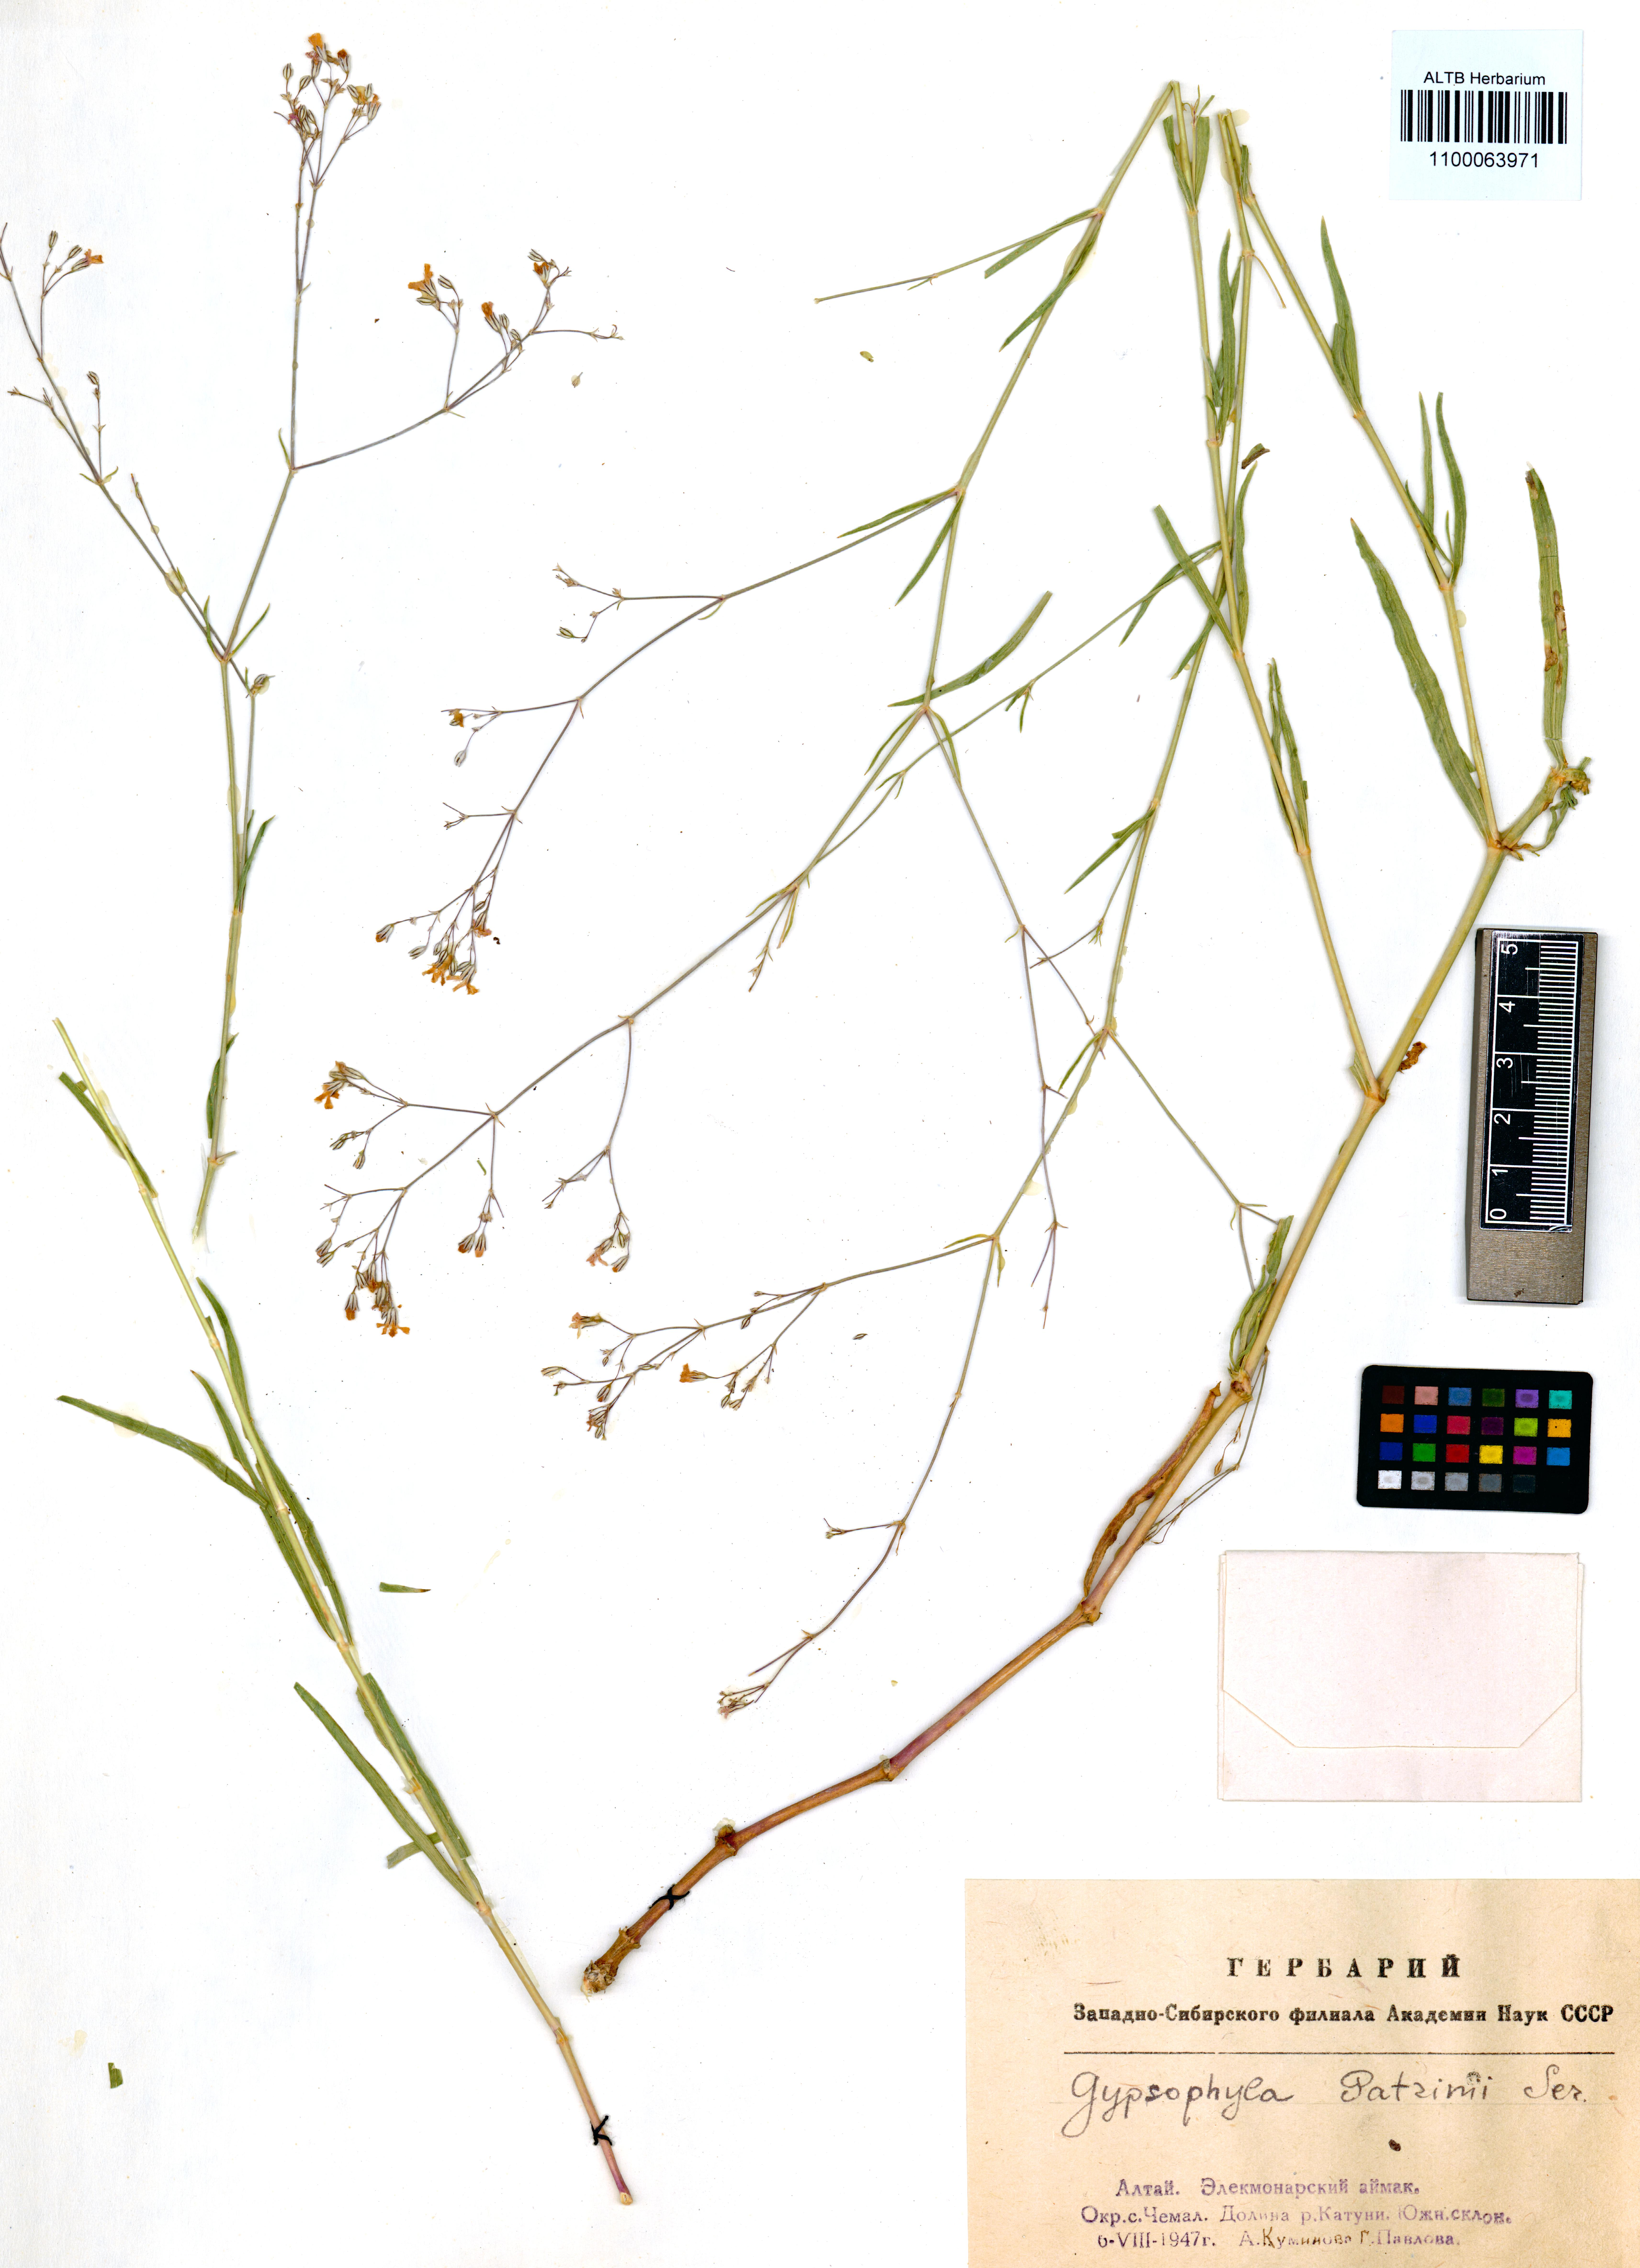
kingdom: Plantae
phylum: Tracheophyta
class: Magnoliopsida
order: Caryophyllales
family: Caryophyllaceae
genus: Gypsophila
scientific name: Gypsophila patrinii
